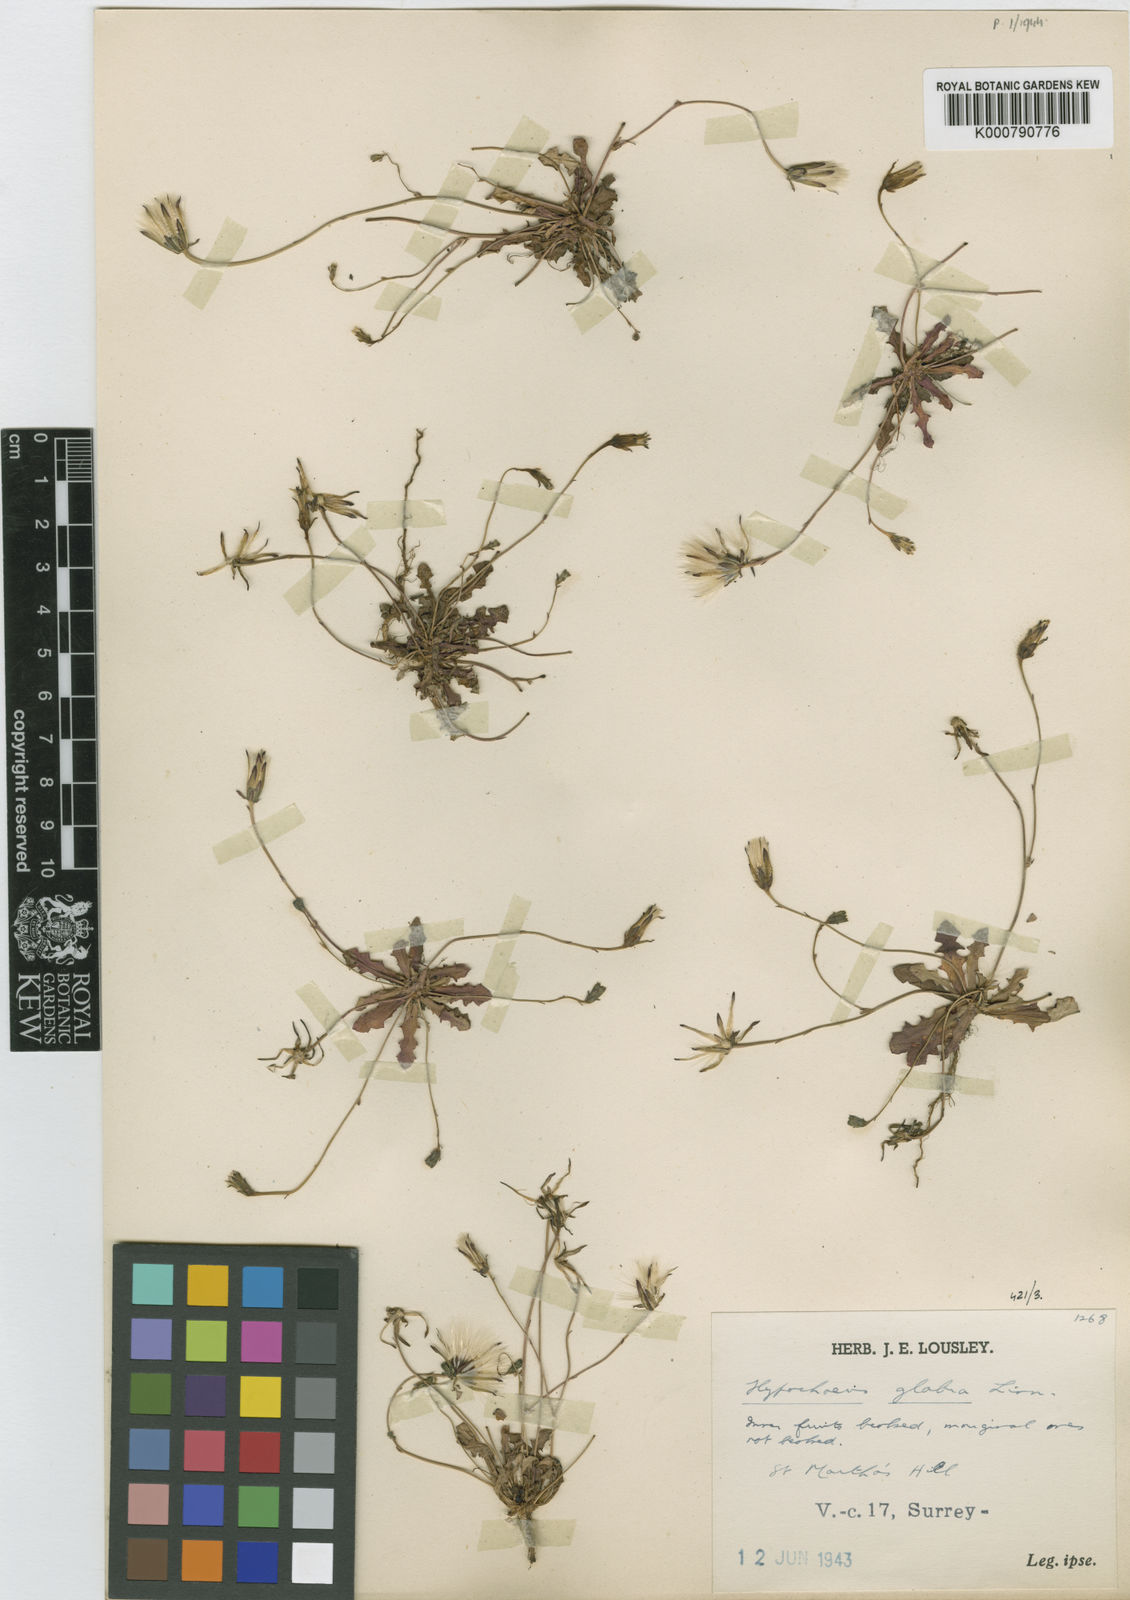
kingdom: Plantae
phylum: Tracheophyta
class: Magnoliopsida
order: Asterales
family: Asteraceae
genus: Hypochaeris
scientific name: Hypochaeris glabra
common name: Smooth catsear
